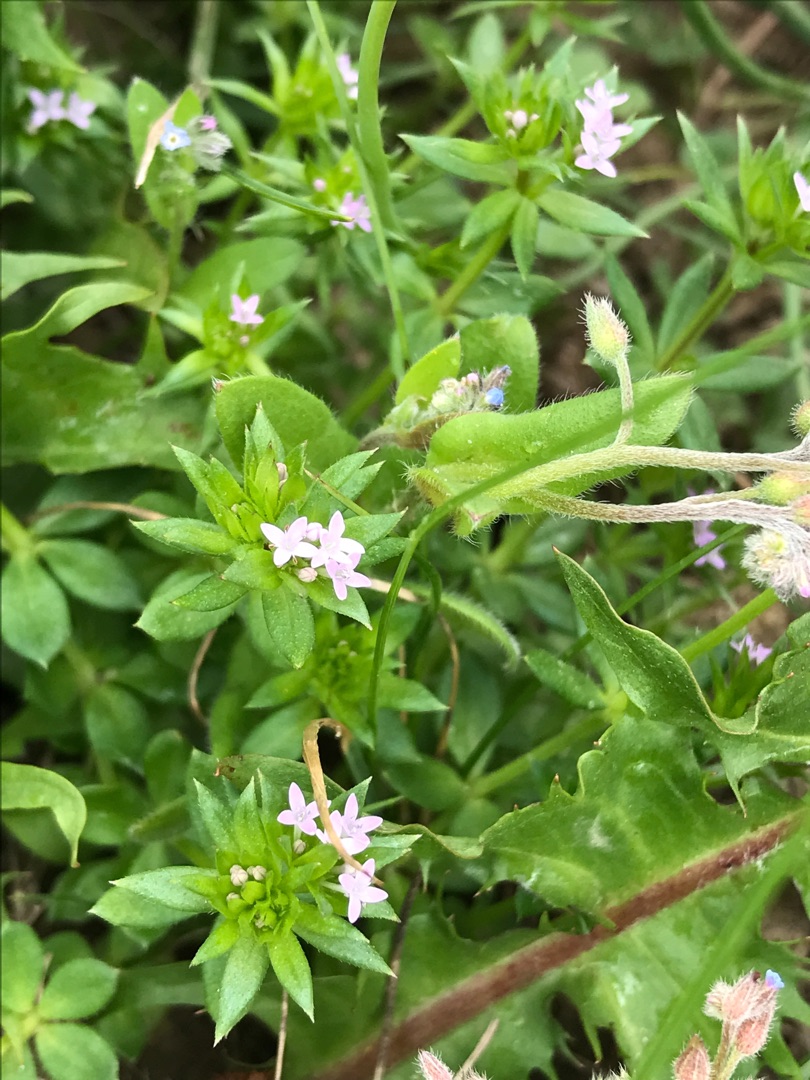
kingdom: Plantae
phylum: Tracheophyta
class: Magnoliopsida
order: Gentianales
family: Rubiaceae
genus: Sherardia
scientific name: Sherardia arvensis
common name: Blåstjerne
